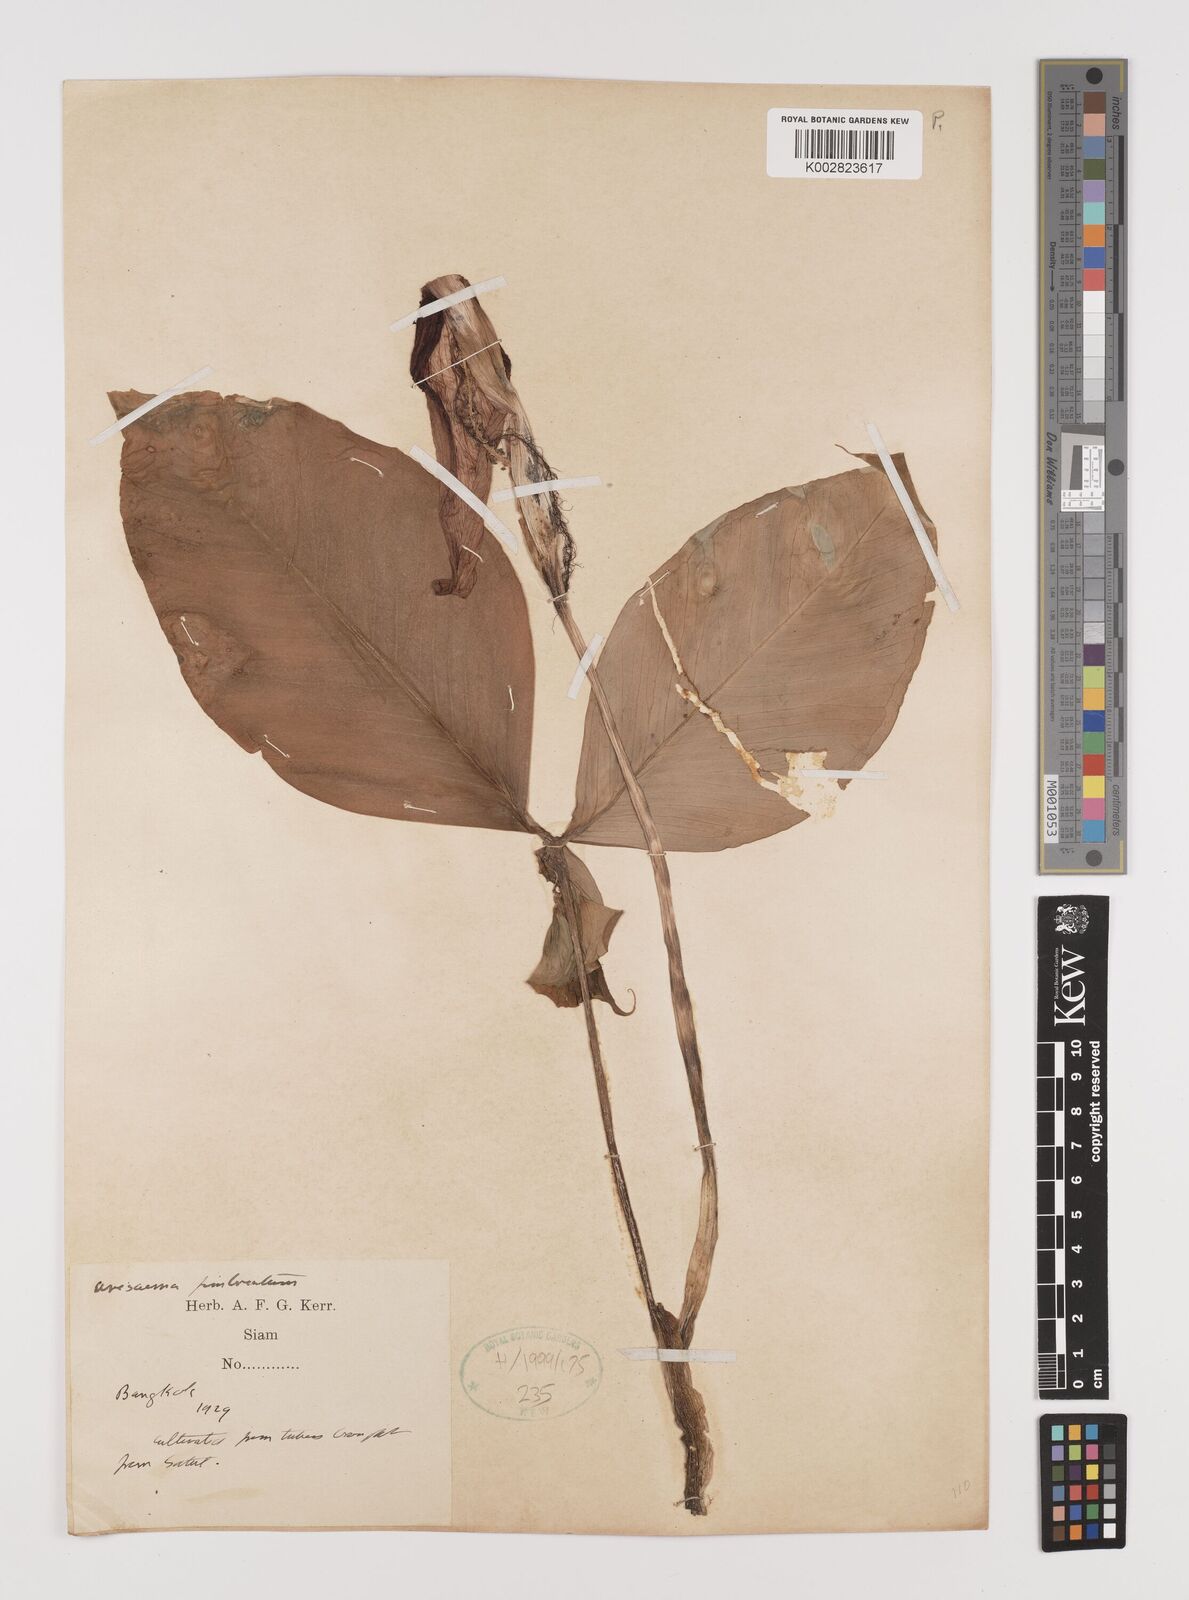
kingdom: Plantae
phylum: Tracheophyta
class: Liliopsida
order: Alismatales
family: Araceae
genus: Arisaema
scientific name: Arisaema fimbriatum
